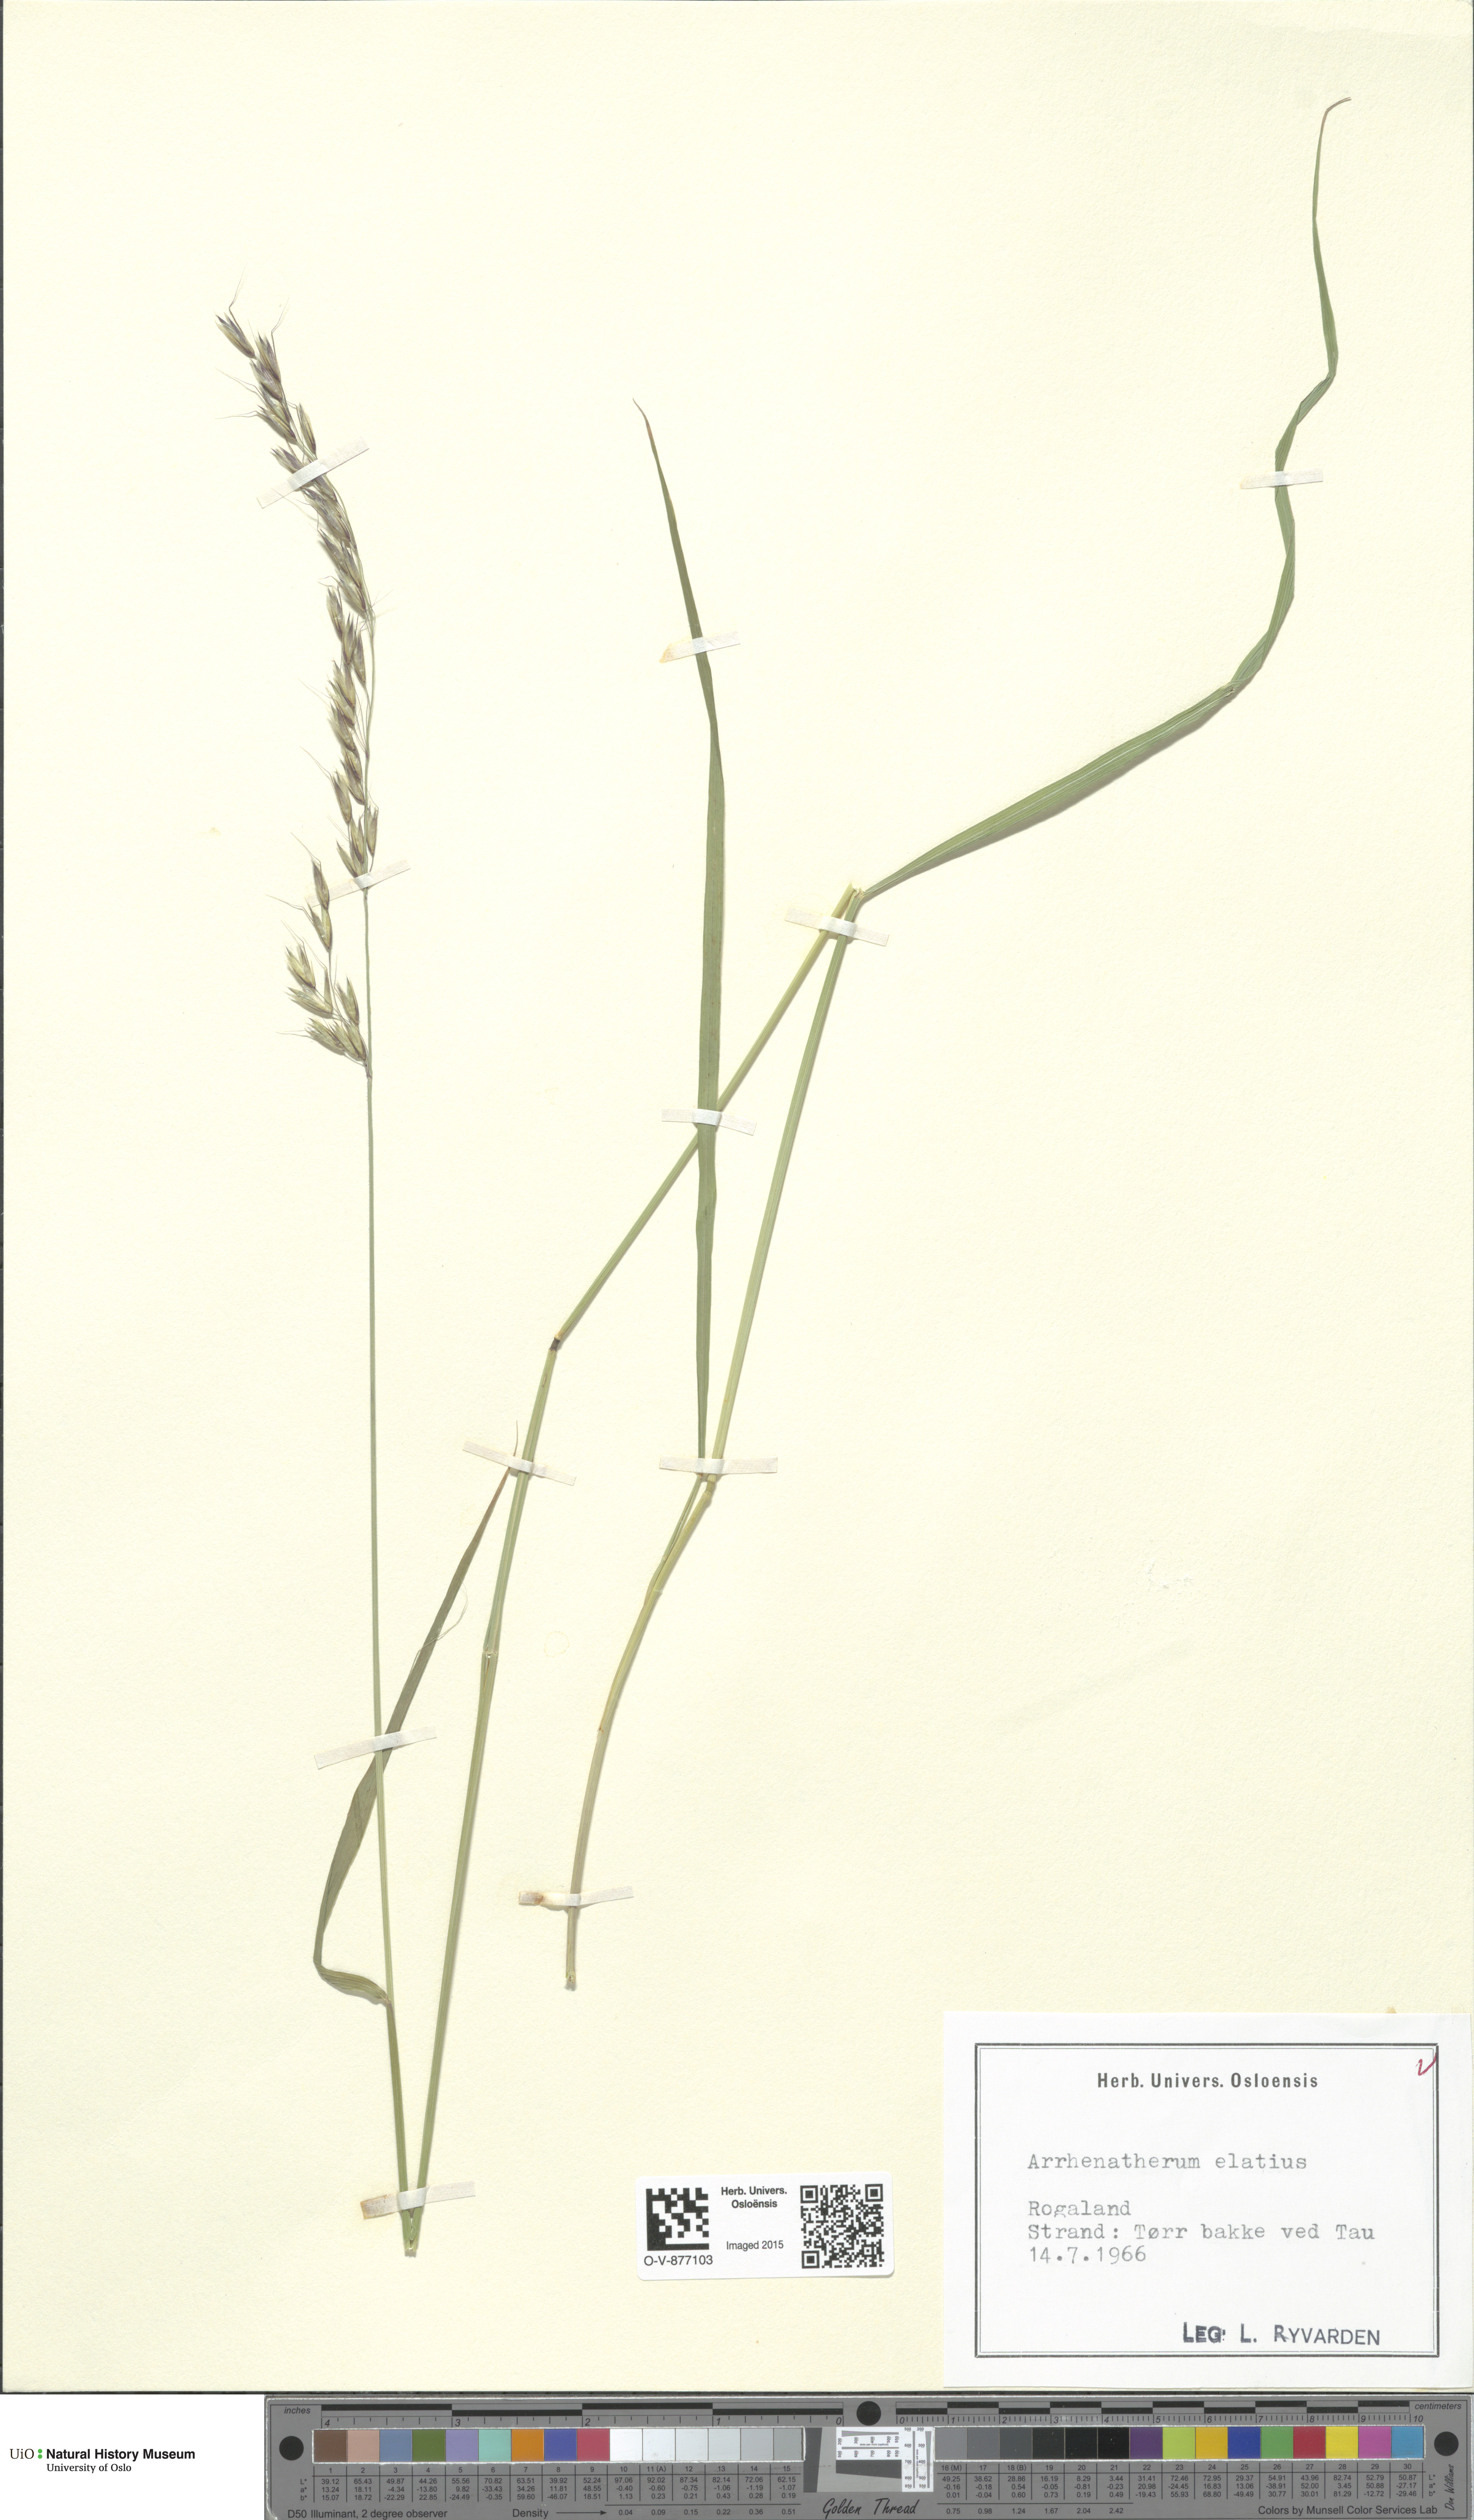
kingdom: Plantae
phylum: Tracheophyta
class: Liliopsida
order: Poales
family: Poaceae
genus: Arrhenatherum
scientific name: Arrhenatherum elatius
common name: Tall oatgrass
